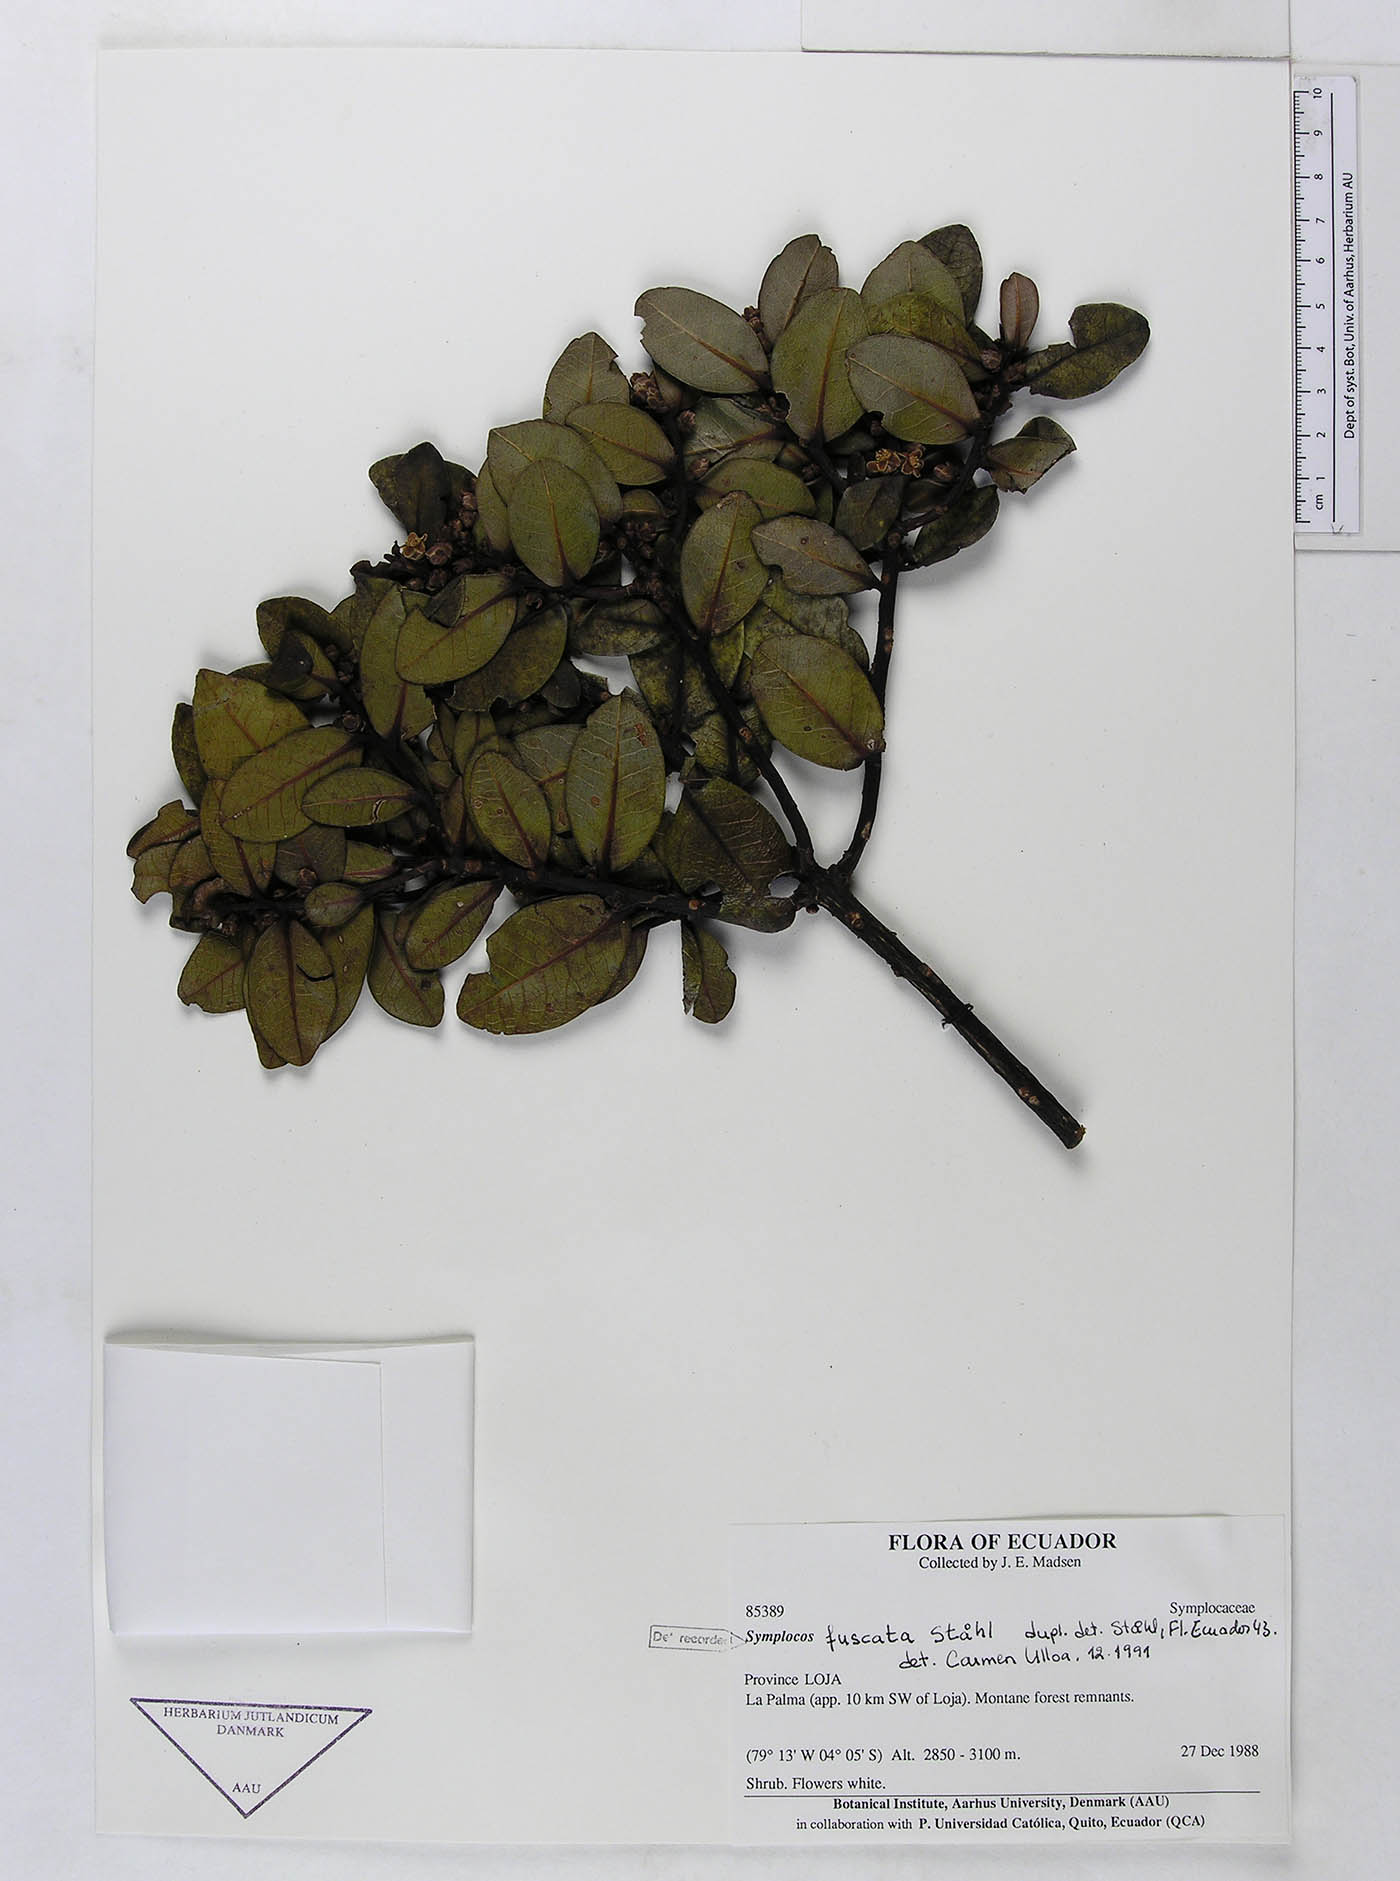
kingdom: Plantae
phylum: Tracheophyta
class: Magnoliopsida
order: Ericales
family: Symplocaceae
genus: Symplocos
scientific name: Symplocos fuscata
